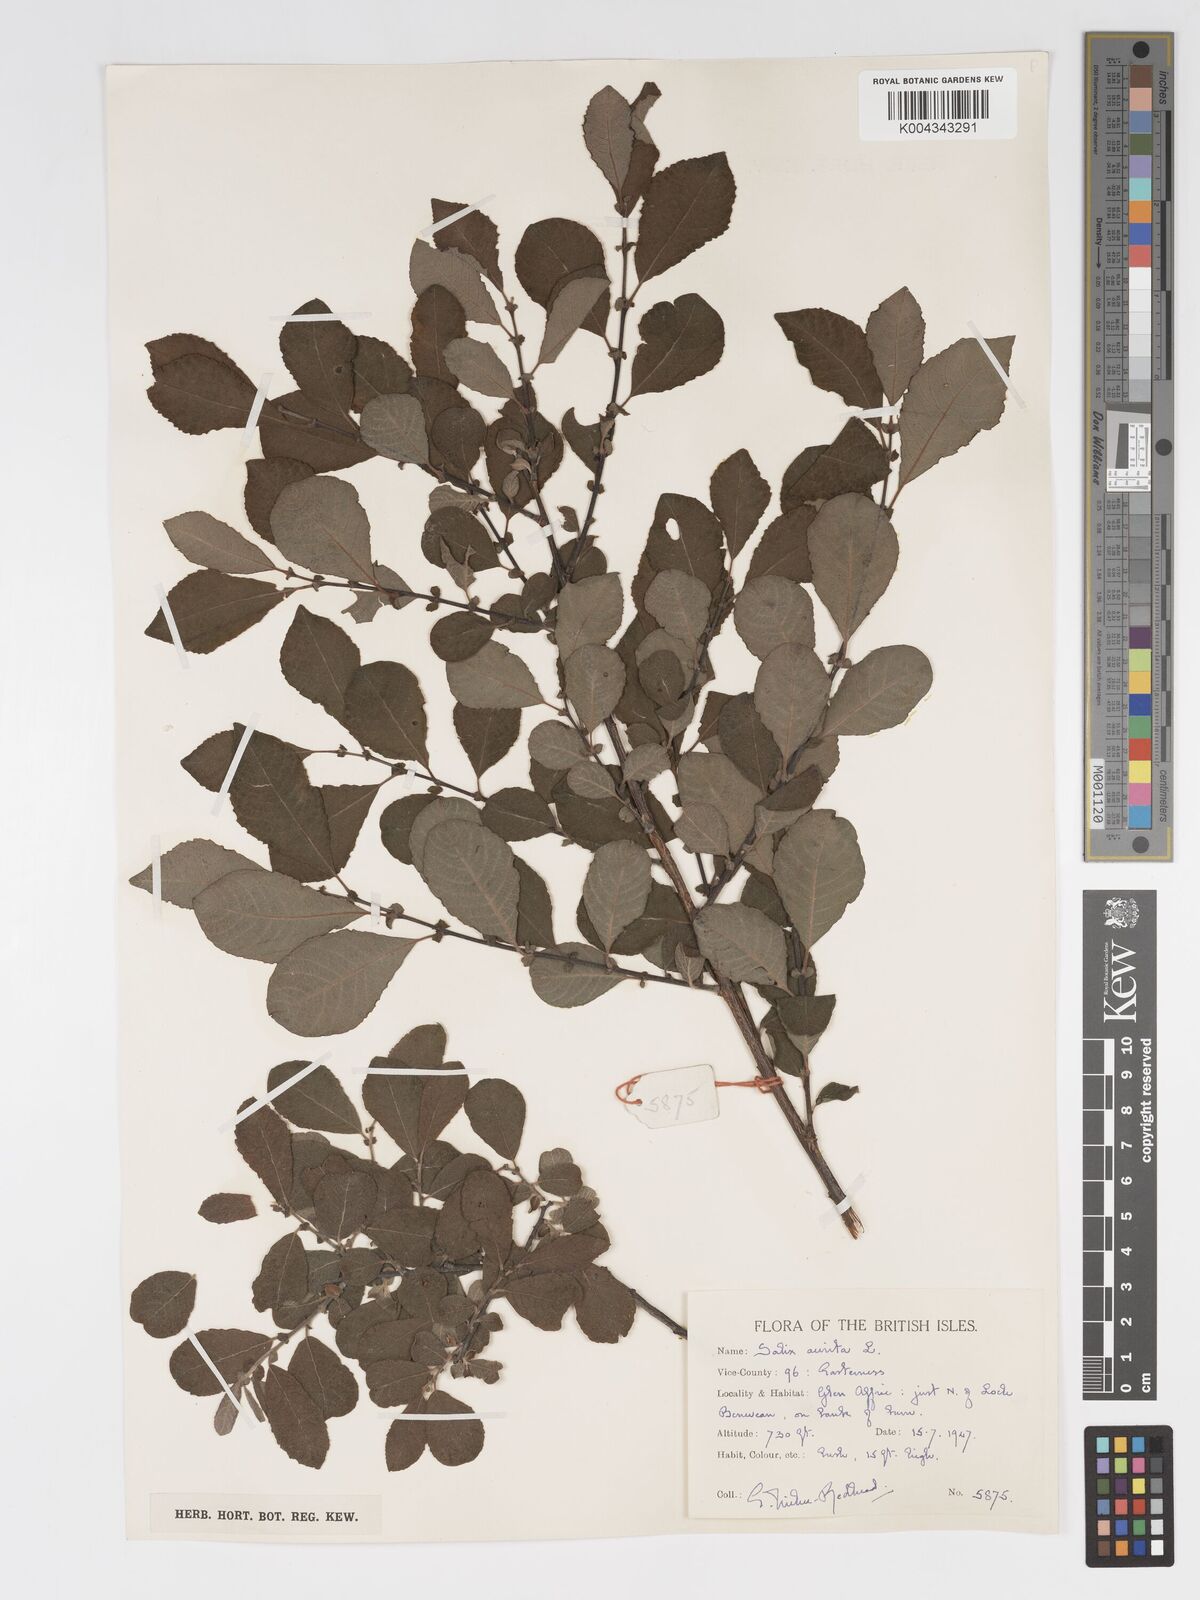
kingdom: Plantae
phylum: Tracheophyta
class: Magnoliopsida
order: Malpighiales
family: Salicaceae
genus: Salix
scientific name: Salix aurita
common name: Eared willow
